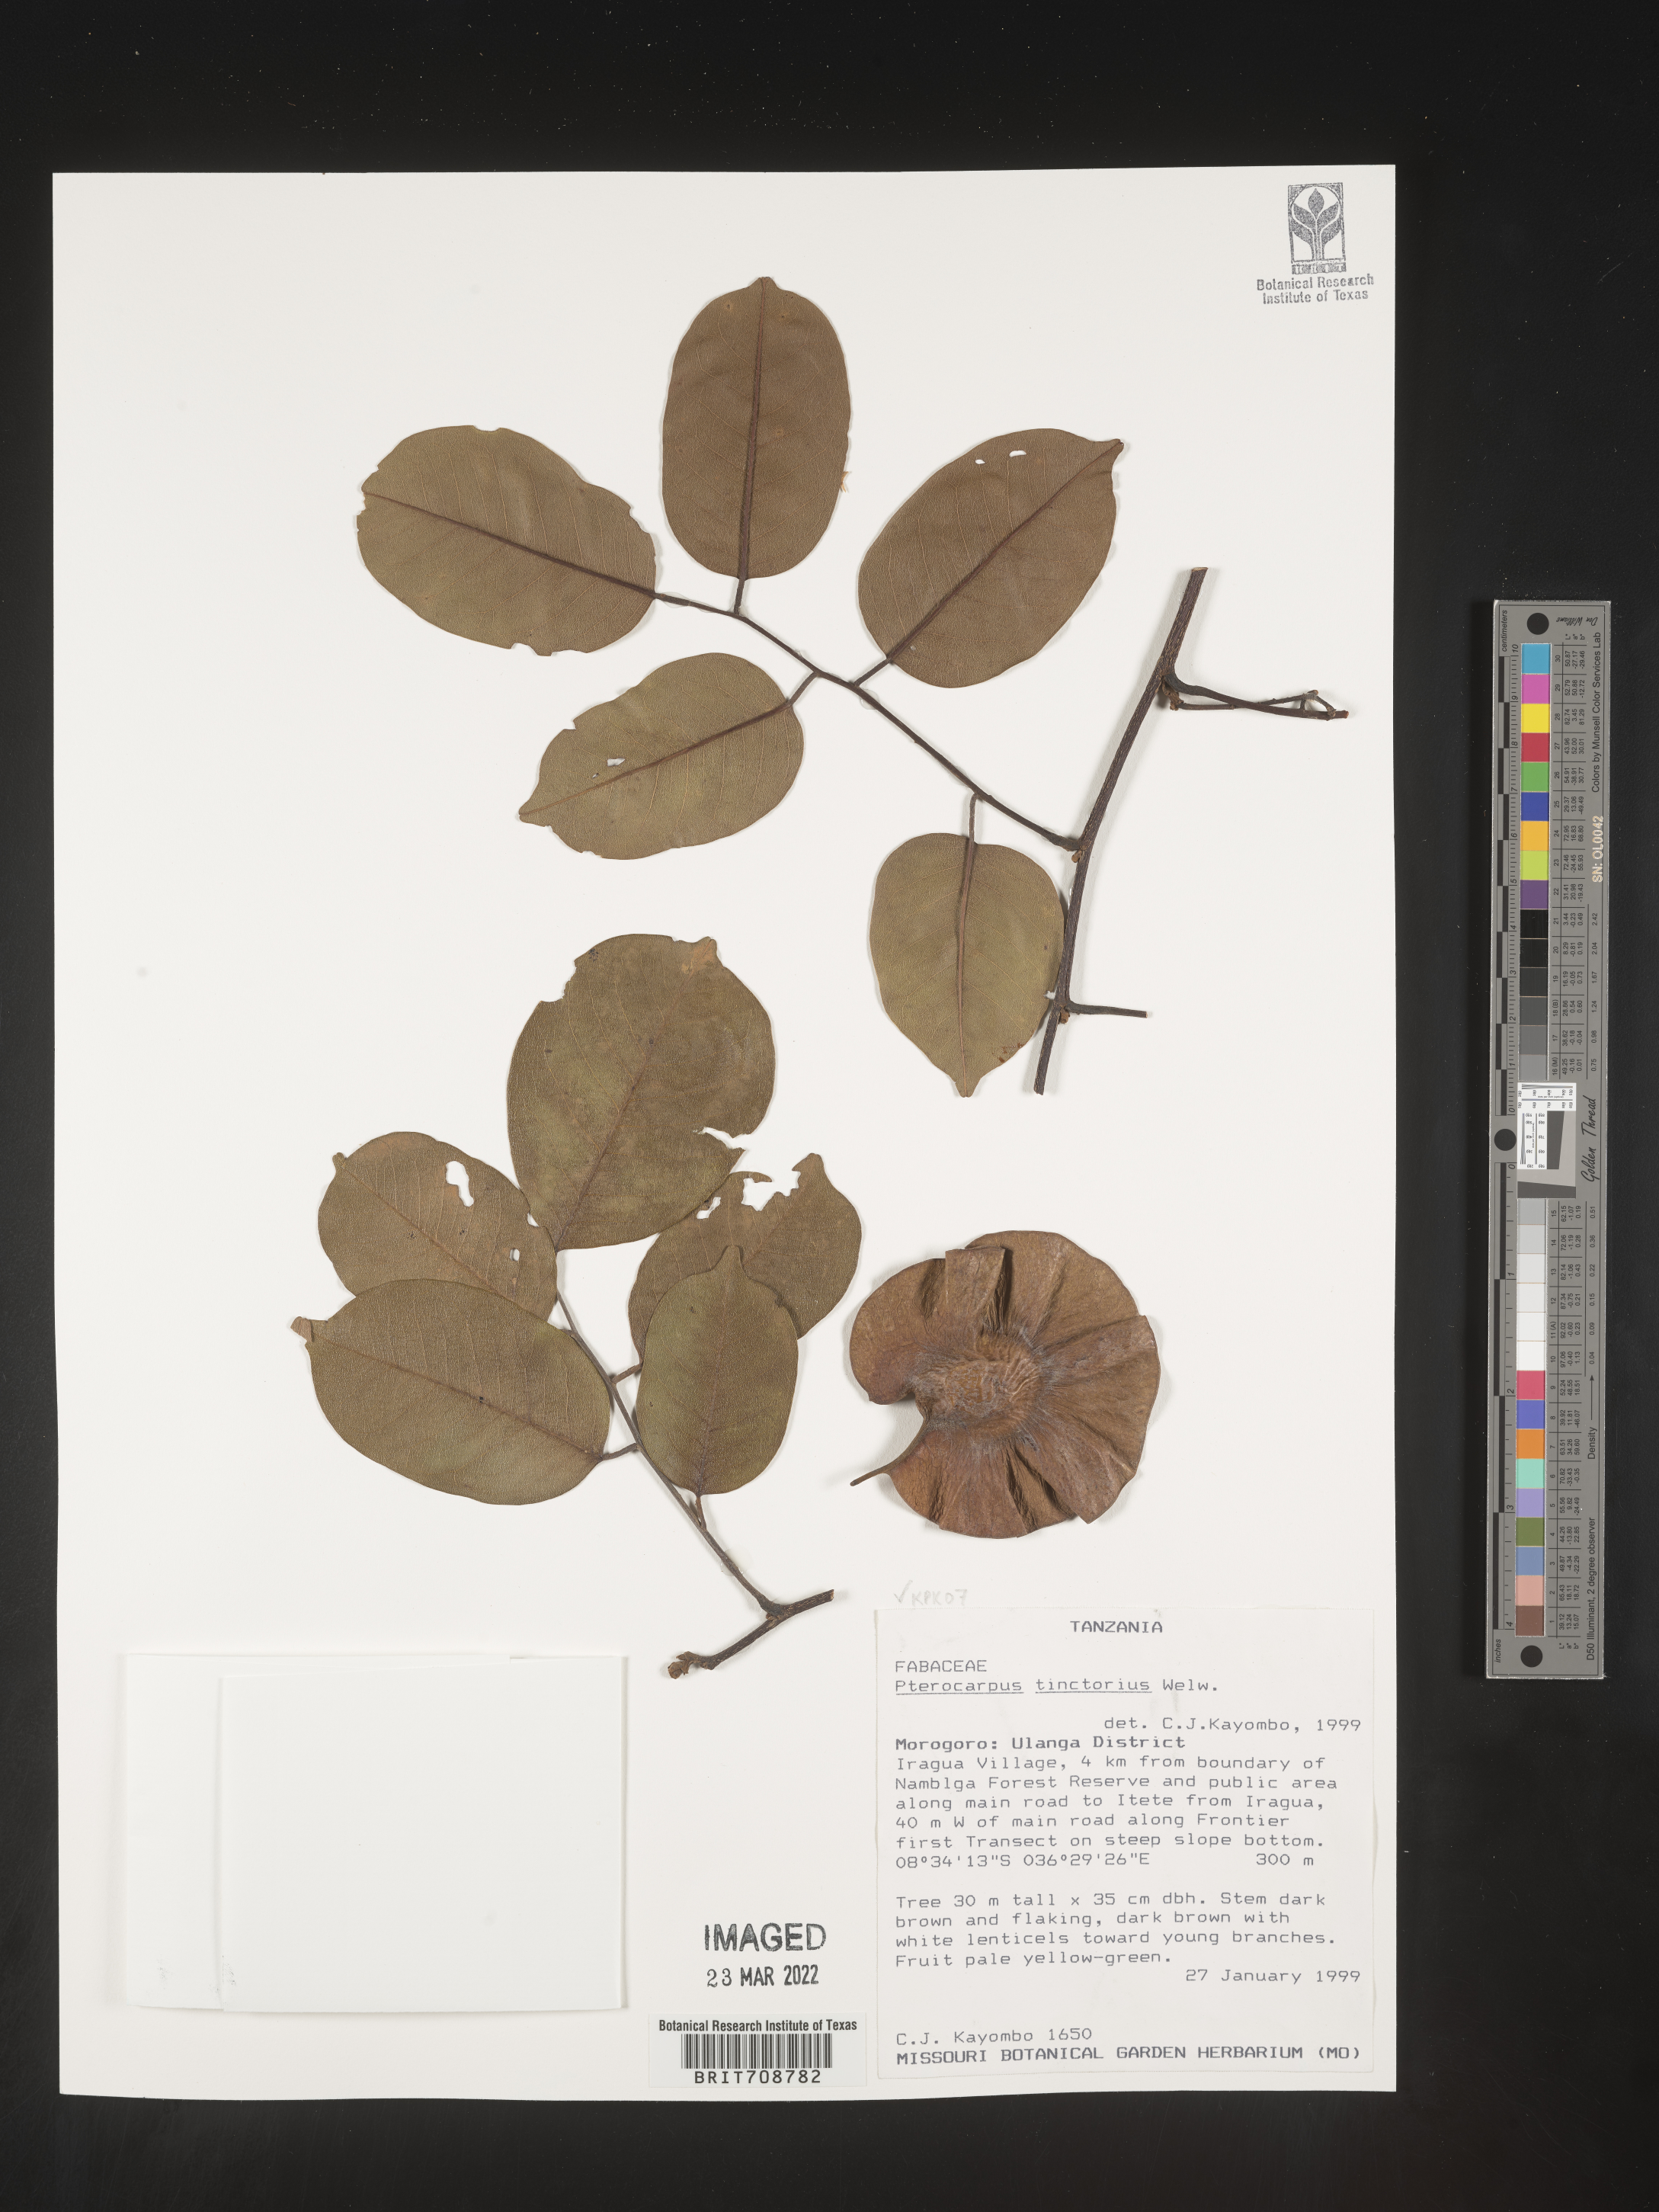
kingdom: Plantae
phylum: Tracheophyta
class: Magnoliopsida
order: Fabales
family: Fabaceae
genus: Pterocarpus
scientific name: Pterocarpus
